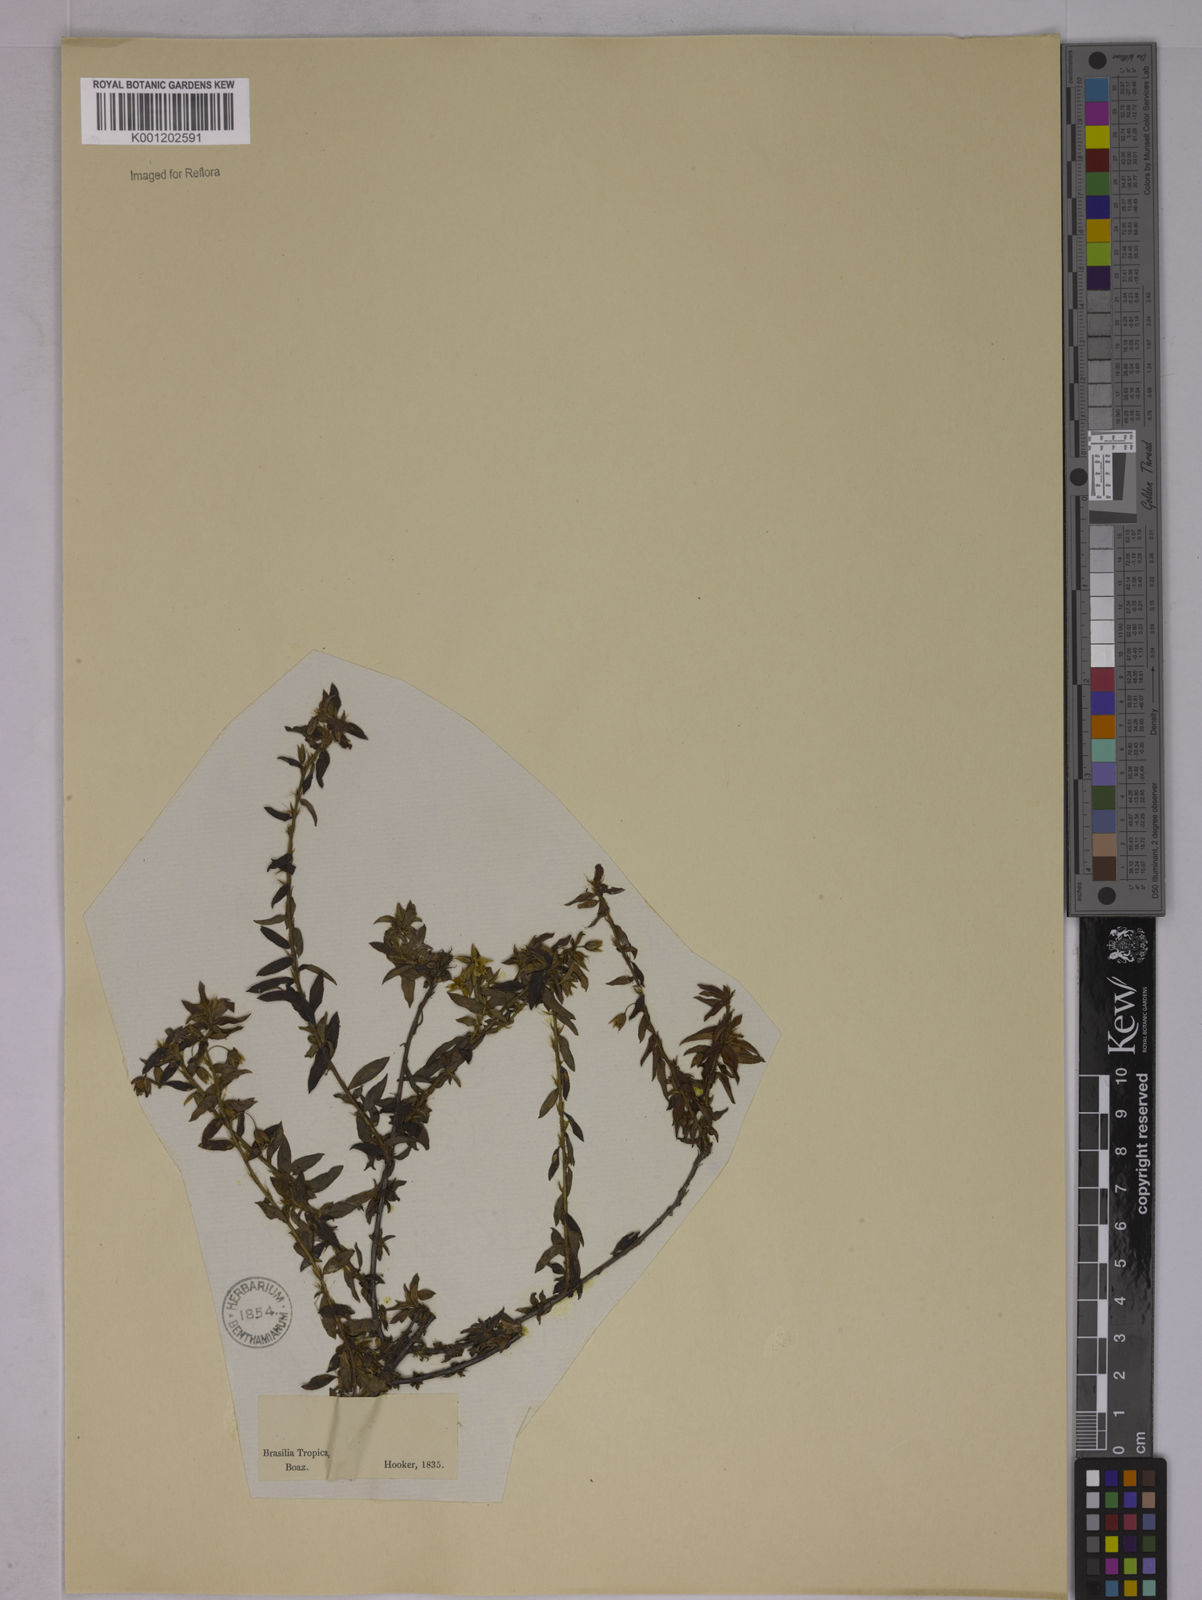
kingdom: Plantae
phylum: Tracheophyta
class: Magnoliopsida
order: Malpighiales
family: Ochnaceae
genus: Sauvagesia
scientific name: Sauvagesia erecta
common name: Creole tea
